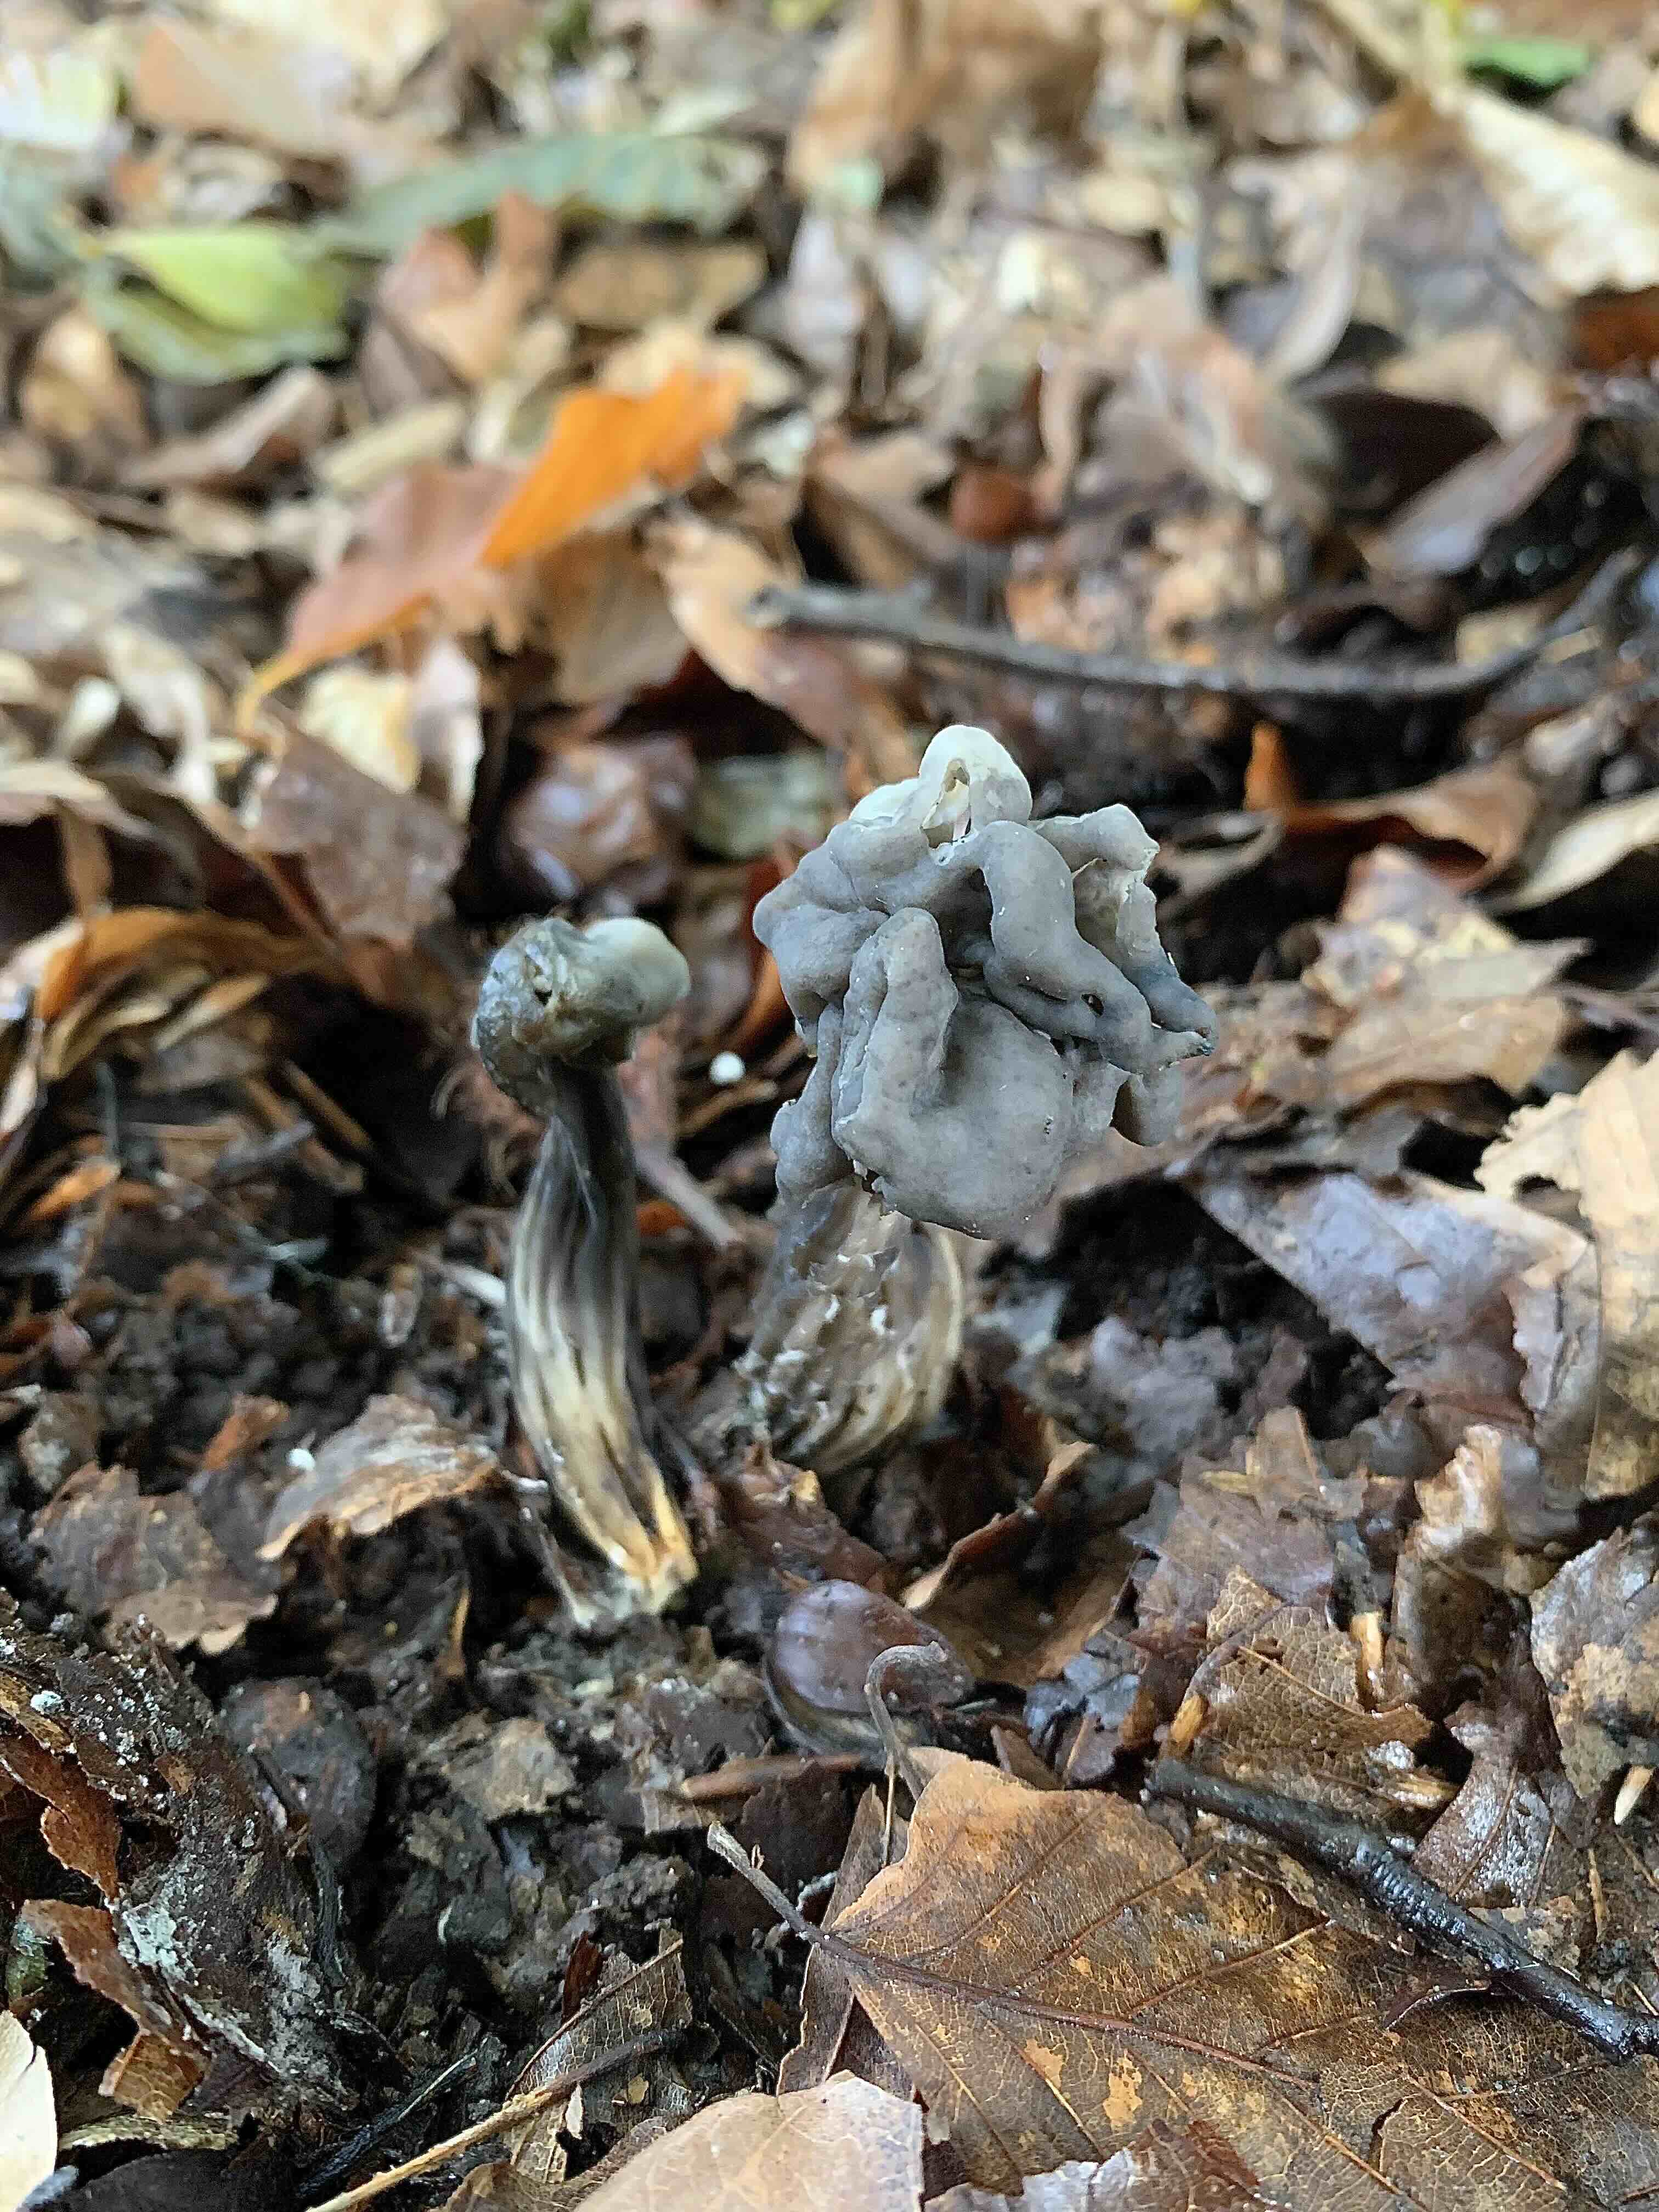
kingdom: Fungi
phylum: Ascomycota
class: Pezizomycetes
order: Pezizales
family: Helvellaceae
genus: Helvella
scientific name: Helvella lacunosa
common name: grubet foldhat
